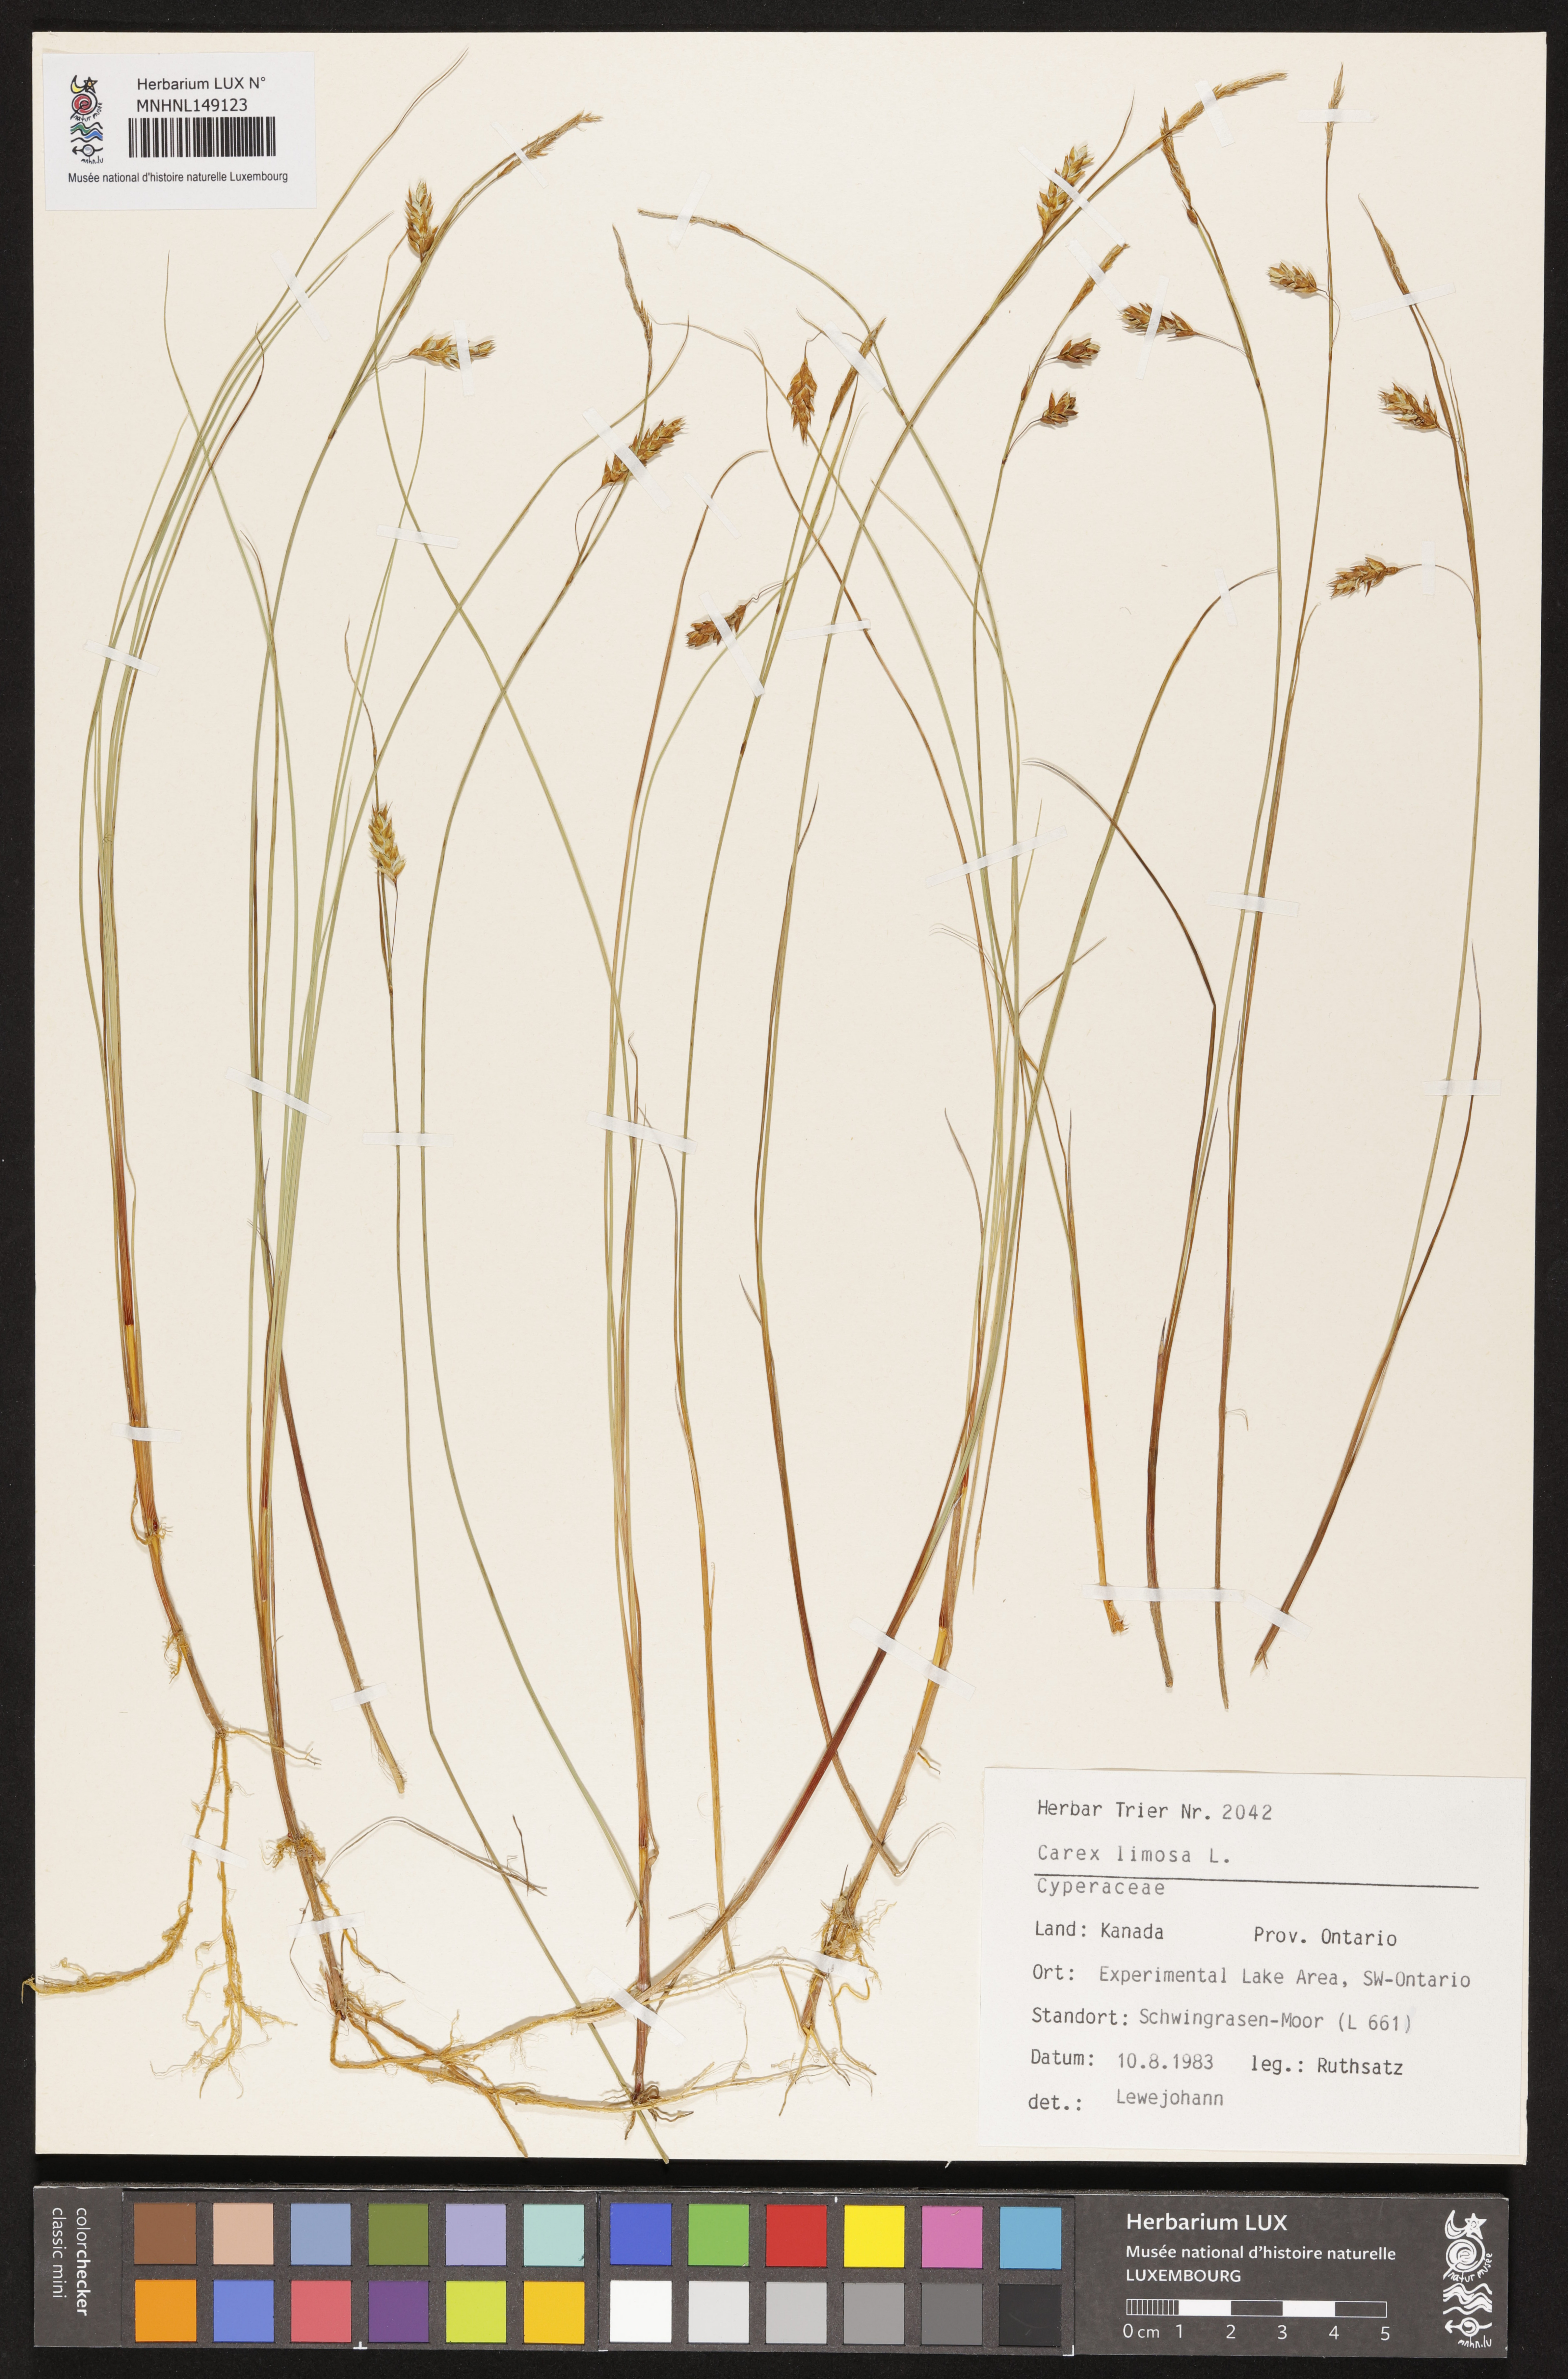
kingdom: Plantae
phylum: Tracheophyta
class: Liliopsida
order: Poales
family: Cyperaceae
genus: Carex
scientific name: Carex limosa
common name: Bog sedge
